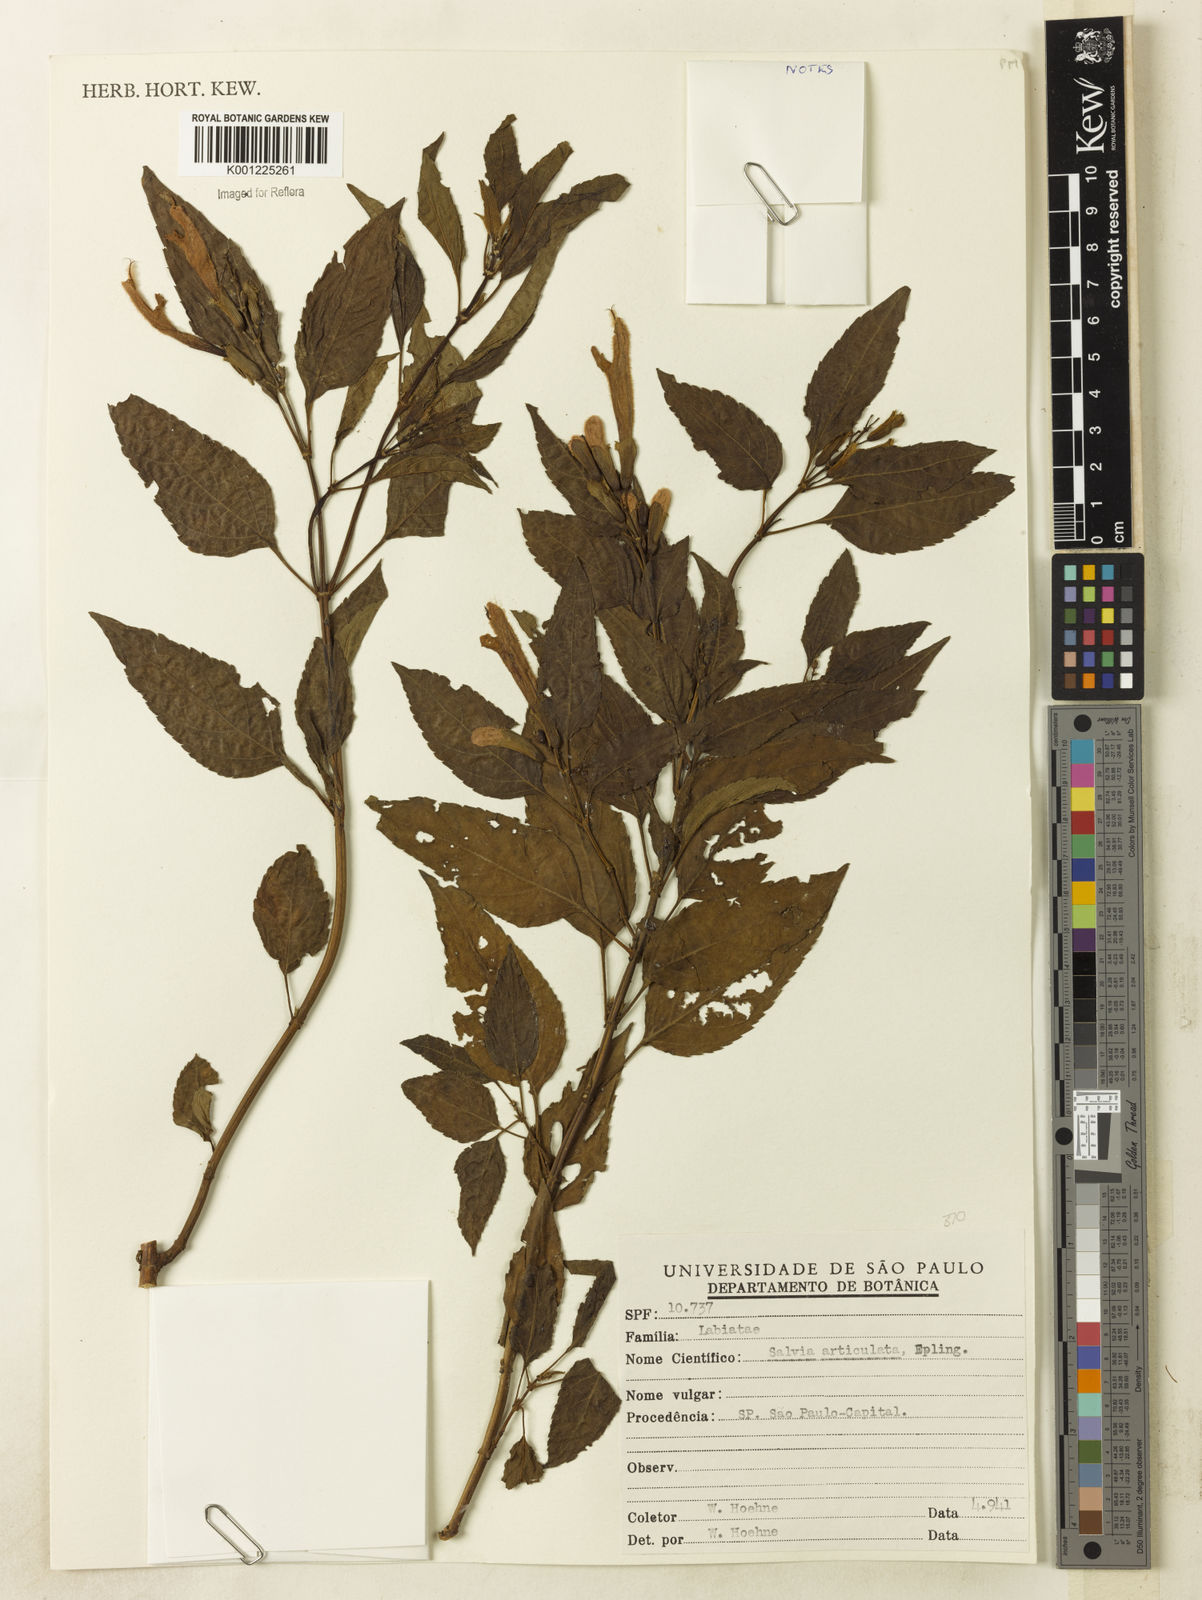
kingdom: Plantae
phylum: Tracheophyta
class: Magnoliopsida
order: Lamiales
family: Lamiaceae
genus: Salvia
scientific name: Salvia articulata
